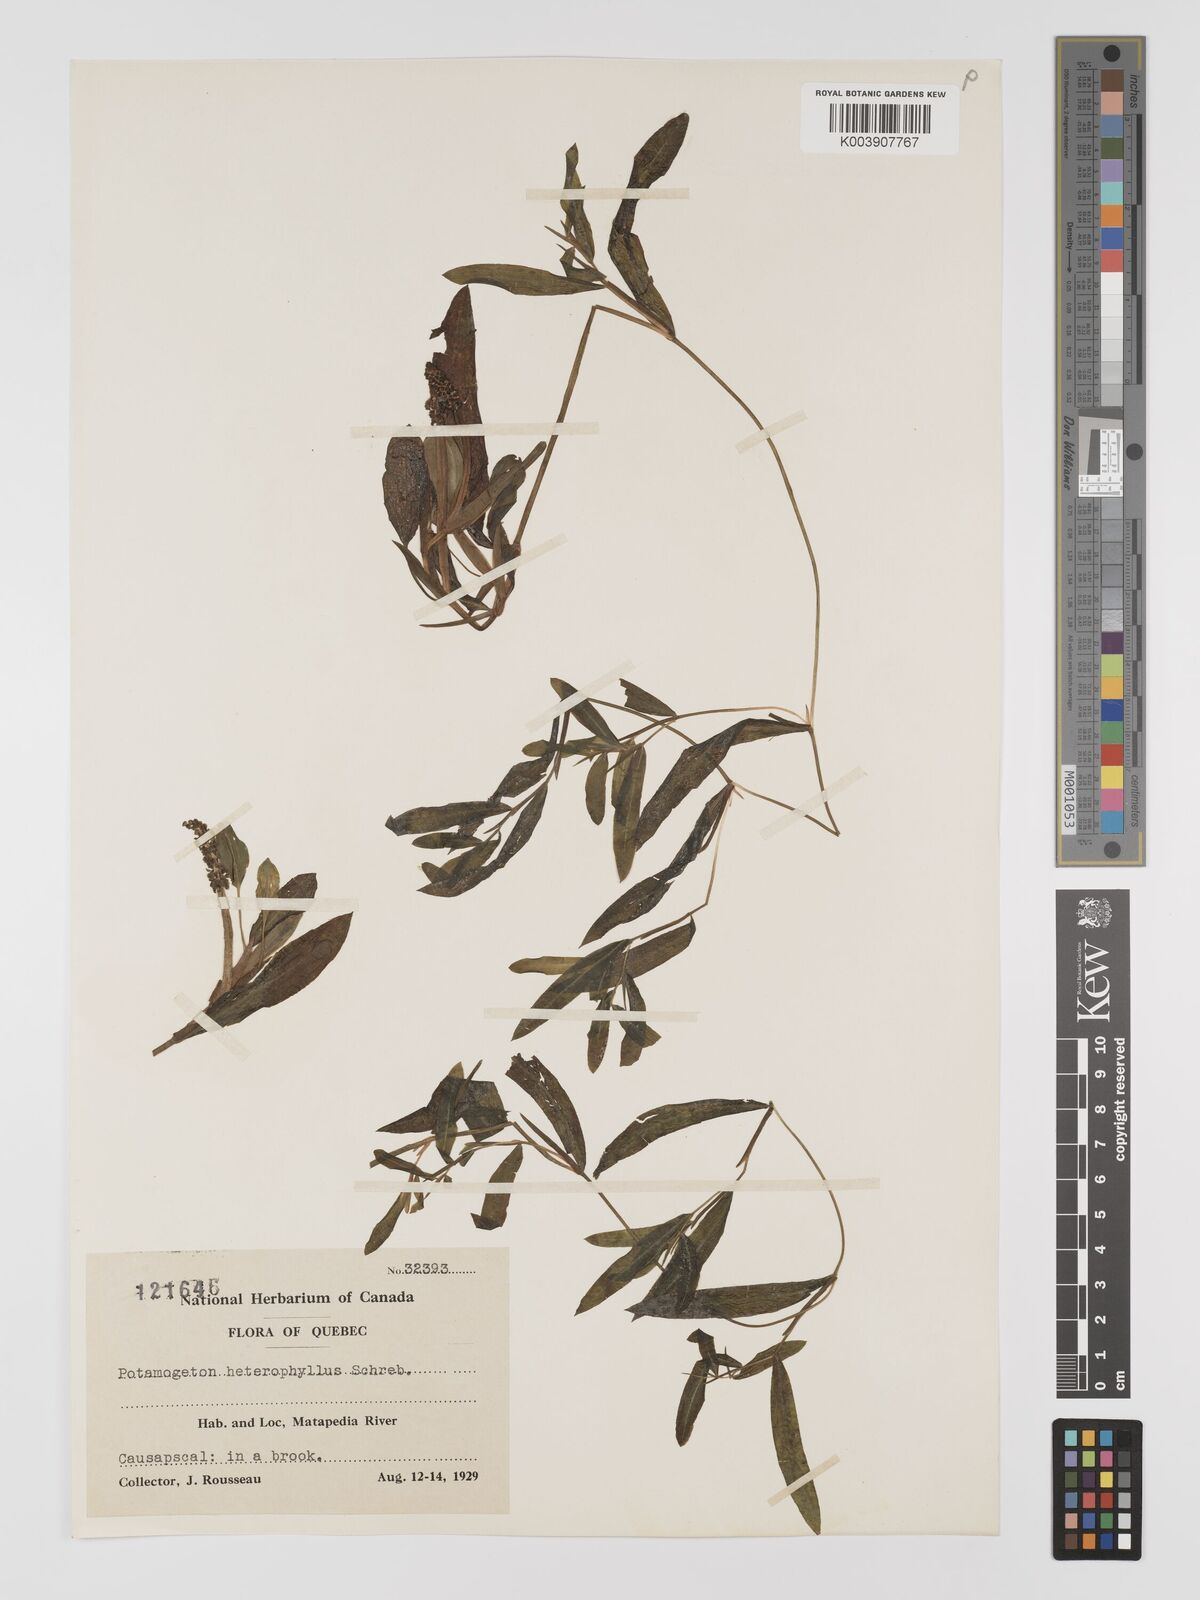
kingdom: Plantae
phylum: Tracheophyta
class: Liliopsida
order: Alismatales
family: Potamogetonaceae
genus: Potamogeton
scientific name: Potamogeton gramineus
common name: Various-leaved pondweed
